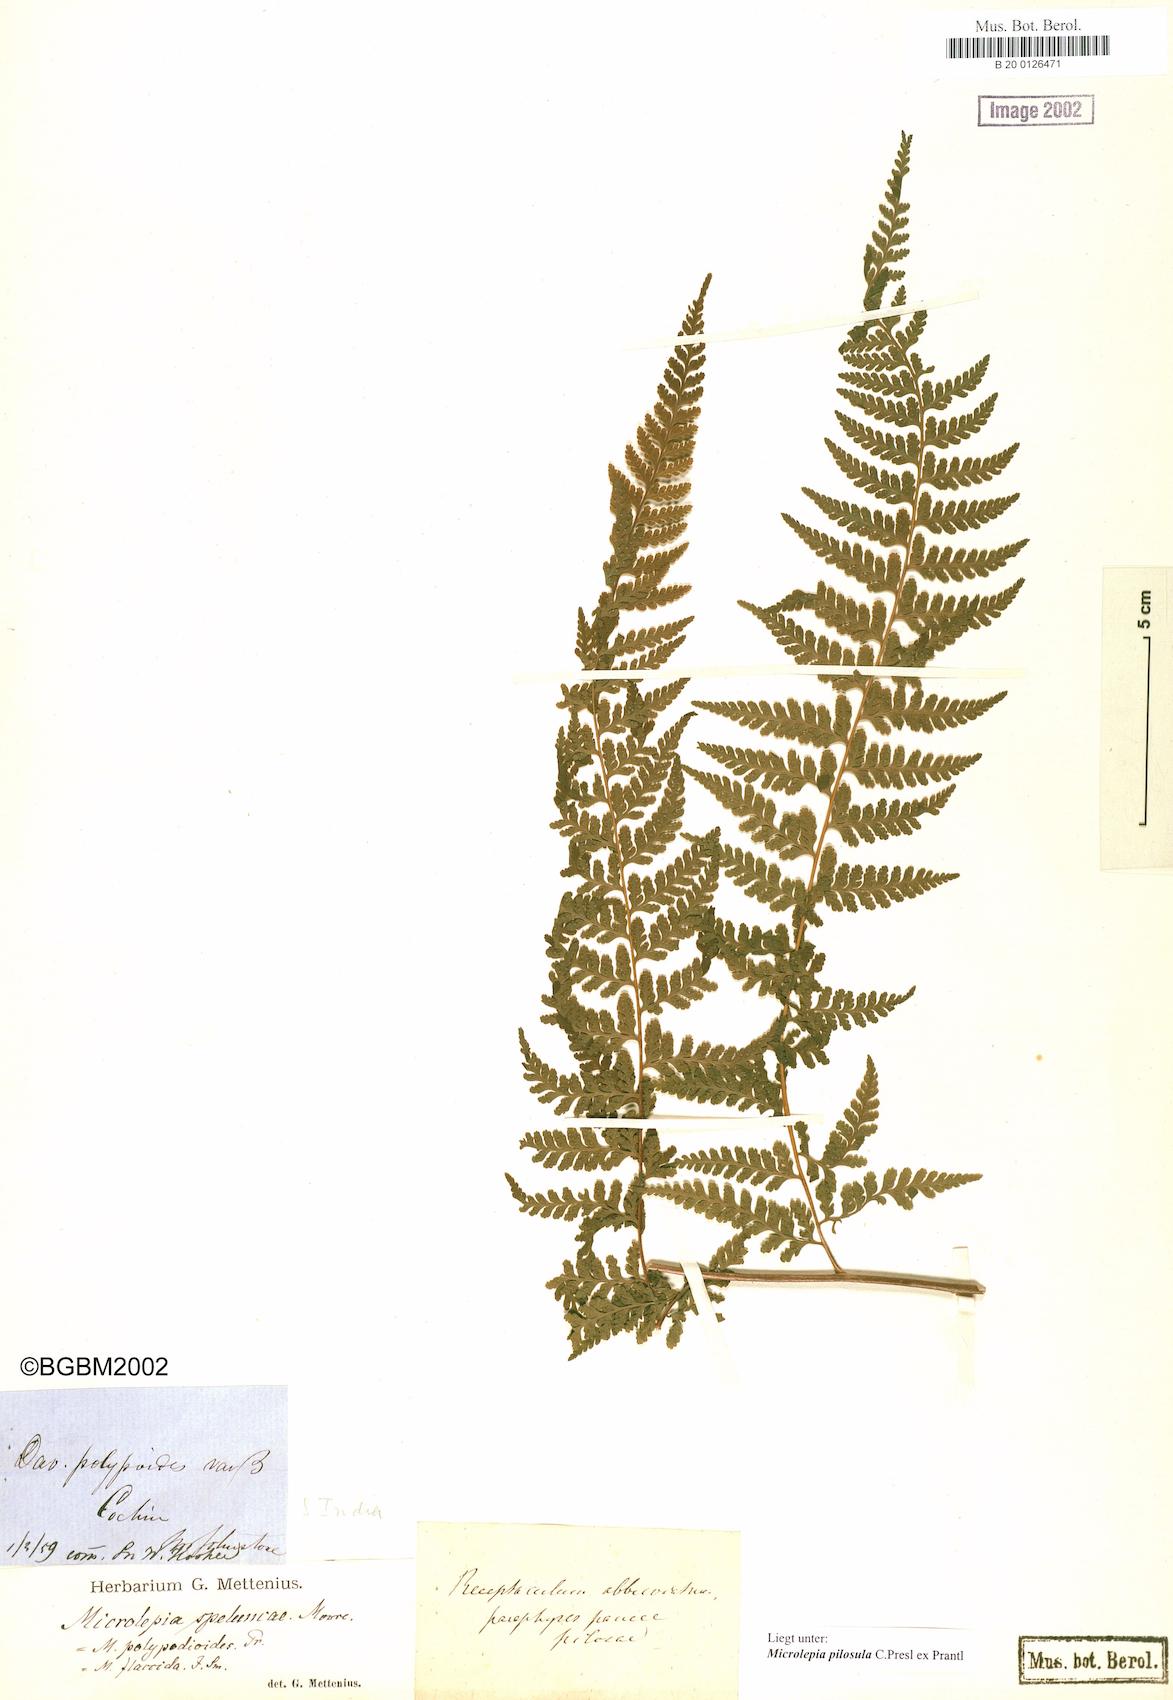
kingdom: Plantae
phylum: Tracheophyta
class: Polypodiopsida
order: Polypodiales
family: Dennstaedtiaceae
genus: Microlepia
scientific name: Microlepia speluncae
